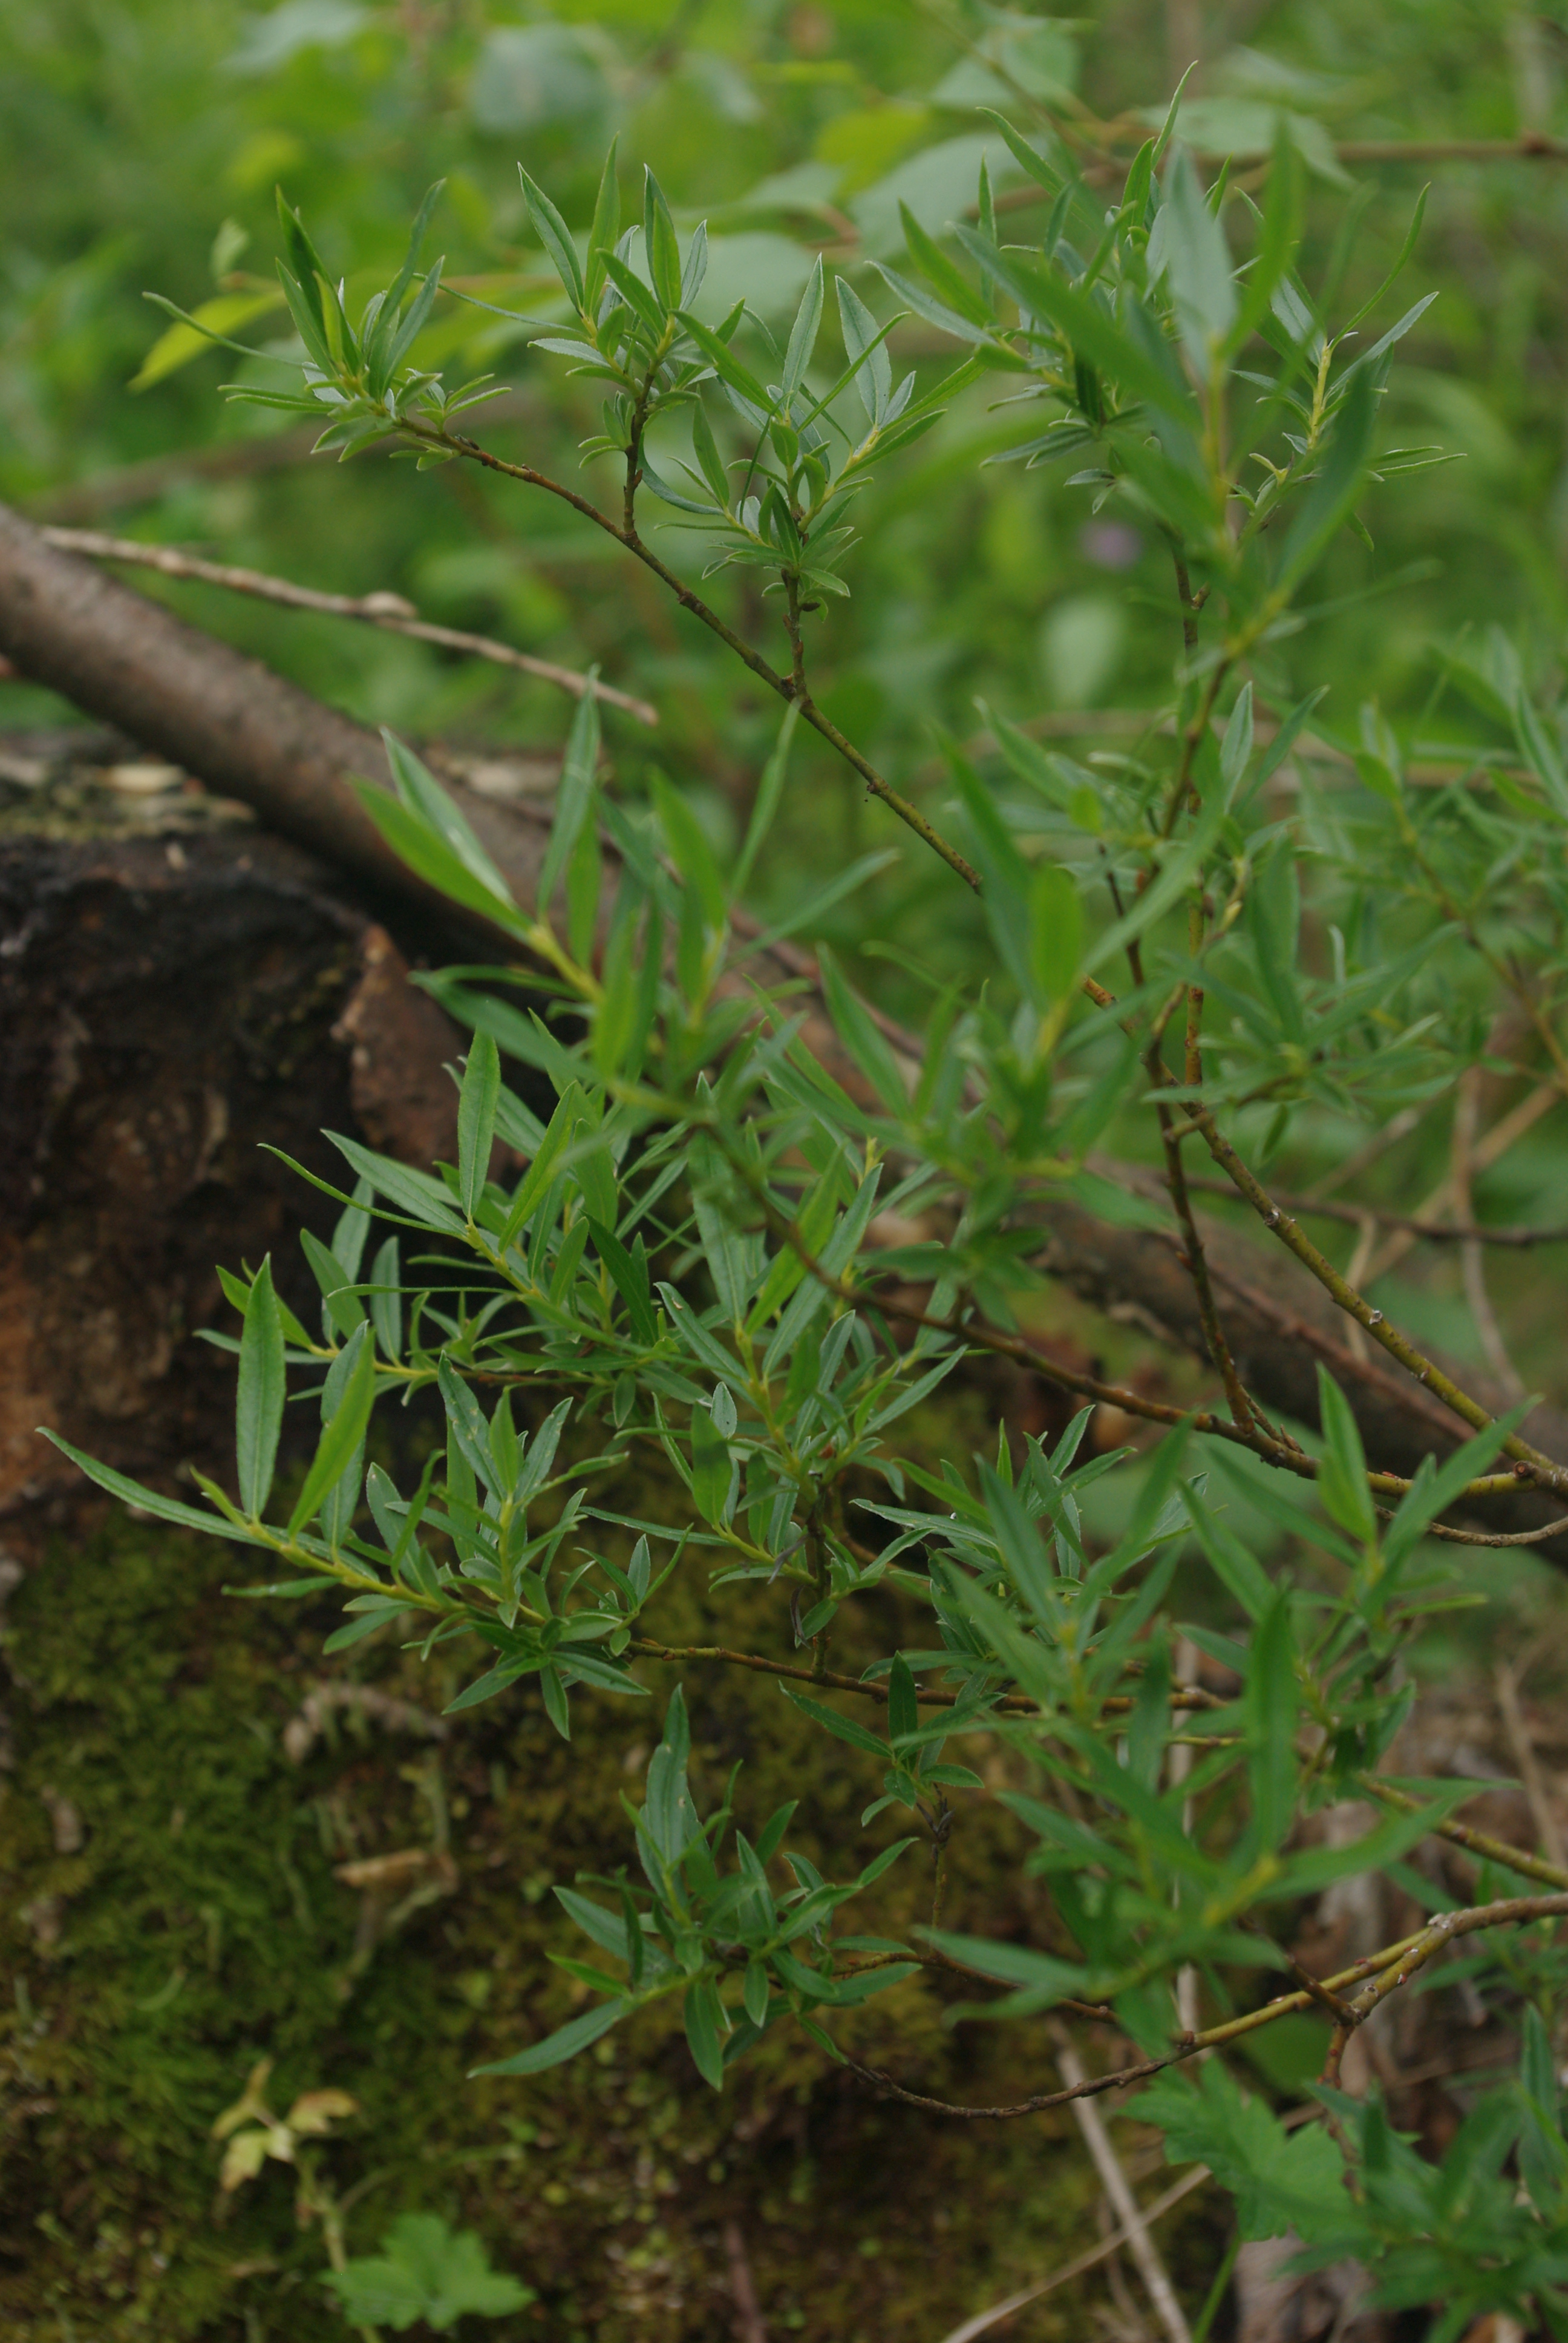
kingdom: Plantae
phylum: Tracheophyta
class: Magnoliopsida
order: Malpighiales
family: Salicaceae
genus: Salix
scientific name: Salix repens
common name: Creeping willow
